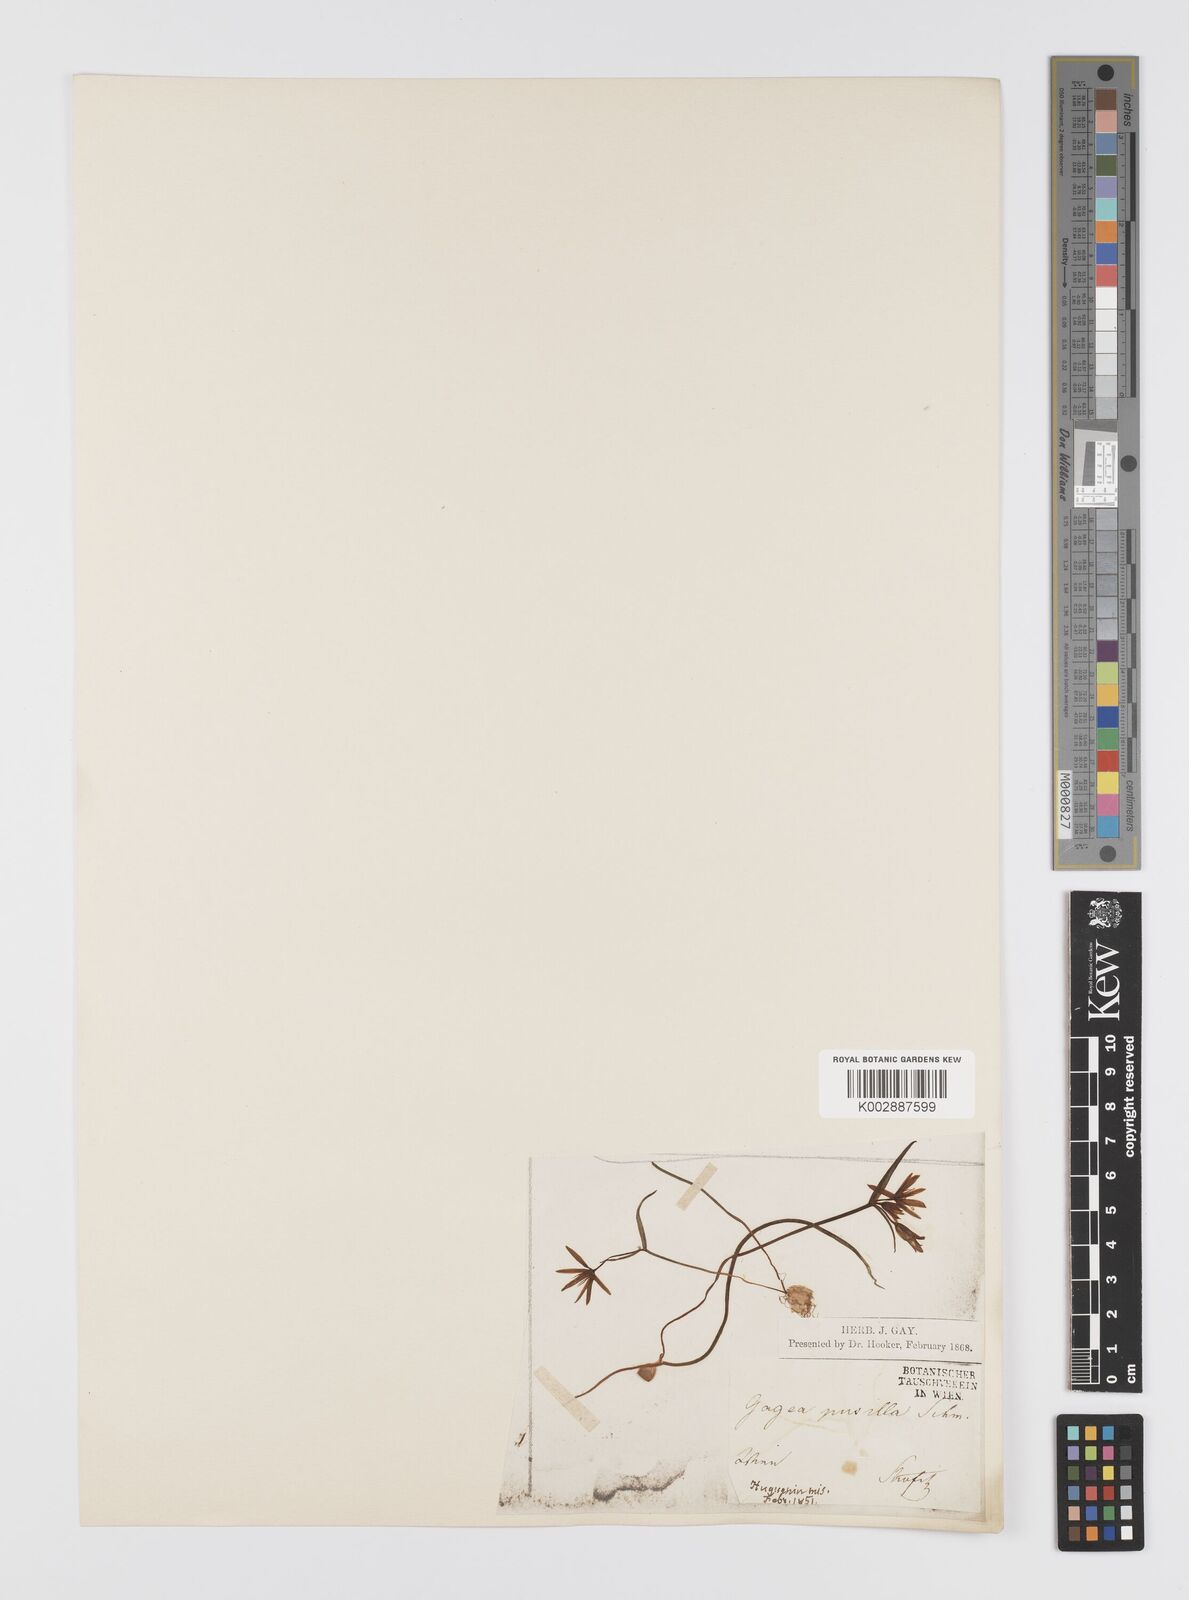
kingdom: Plantae
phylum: Tracheophyta
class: Liliopsida
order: Liliales
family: Liliaceae
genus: Gagea
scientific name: Gagea pusilla
